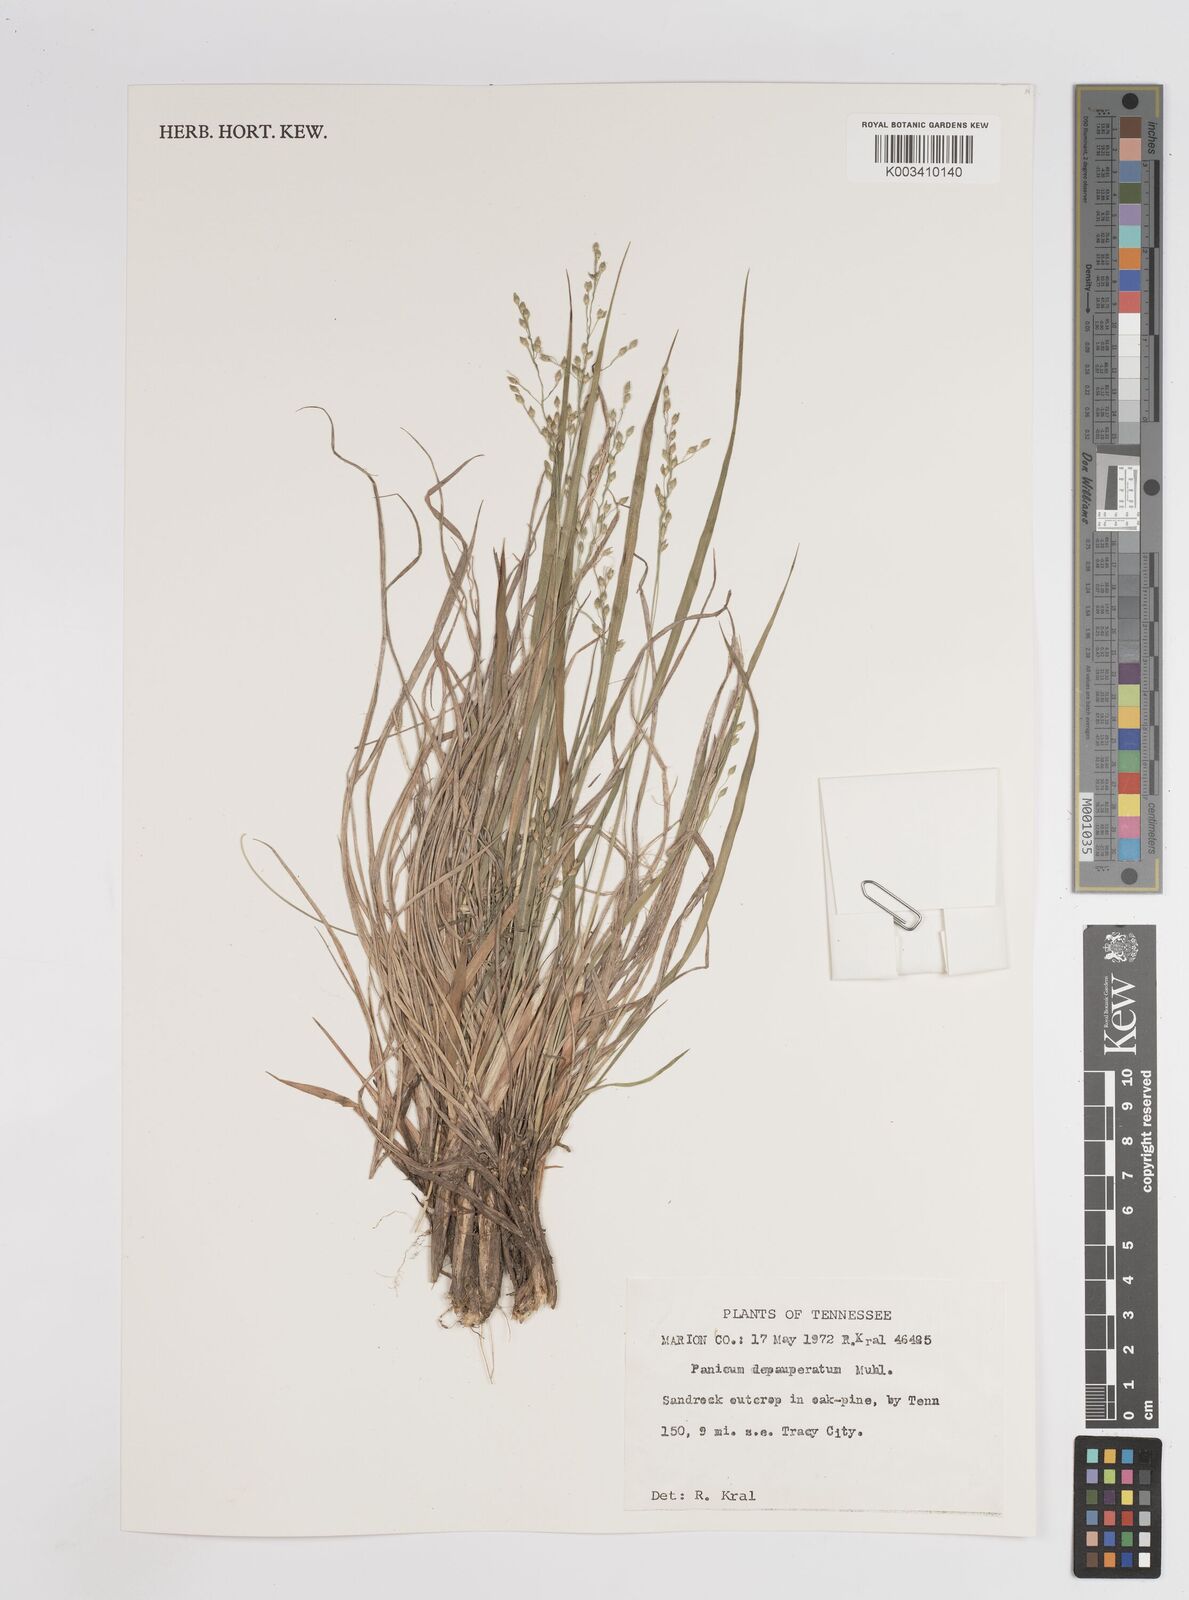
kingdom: Plantae
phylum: Tracheophyta
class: Liliopsida
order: Poales
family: Poaceae
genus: Dichanthelium
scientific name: Dichanthelium depauperatum
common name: Depauperate panicgrass
